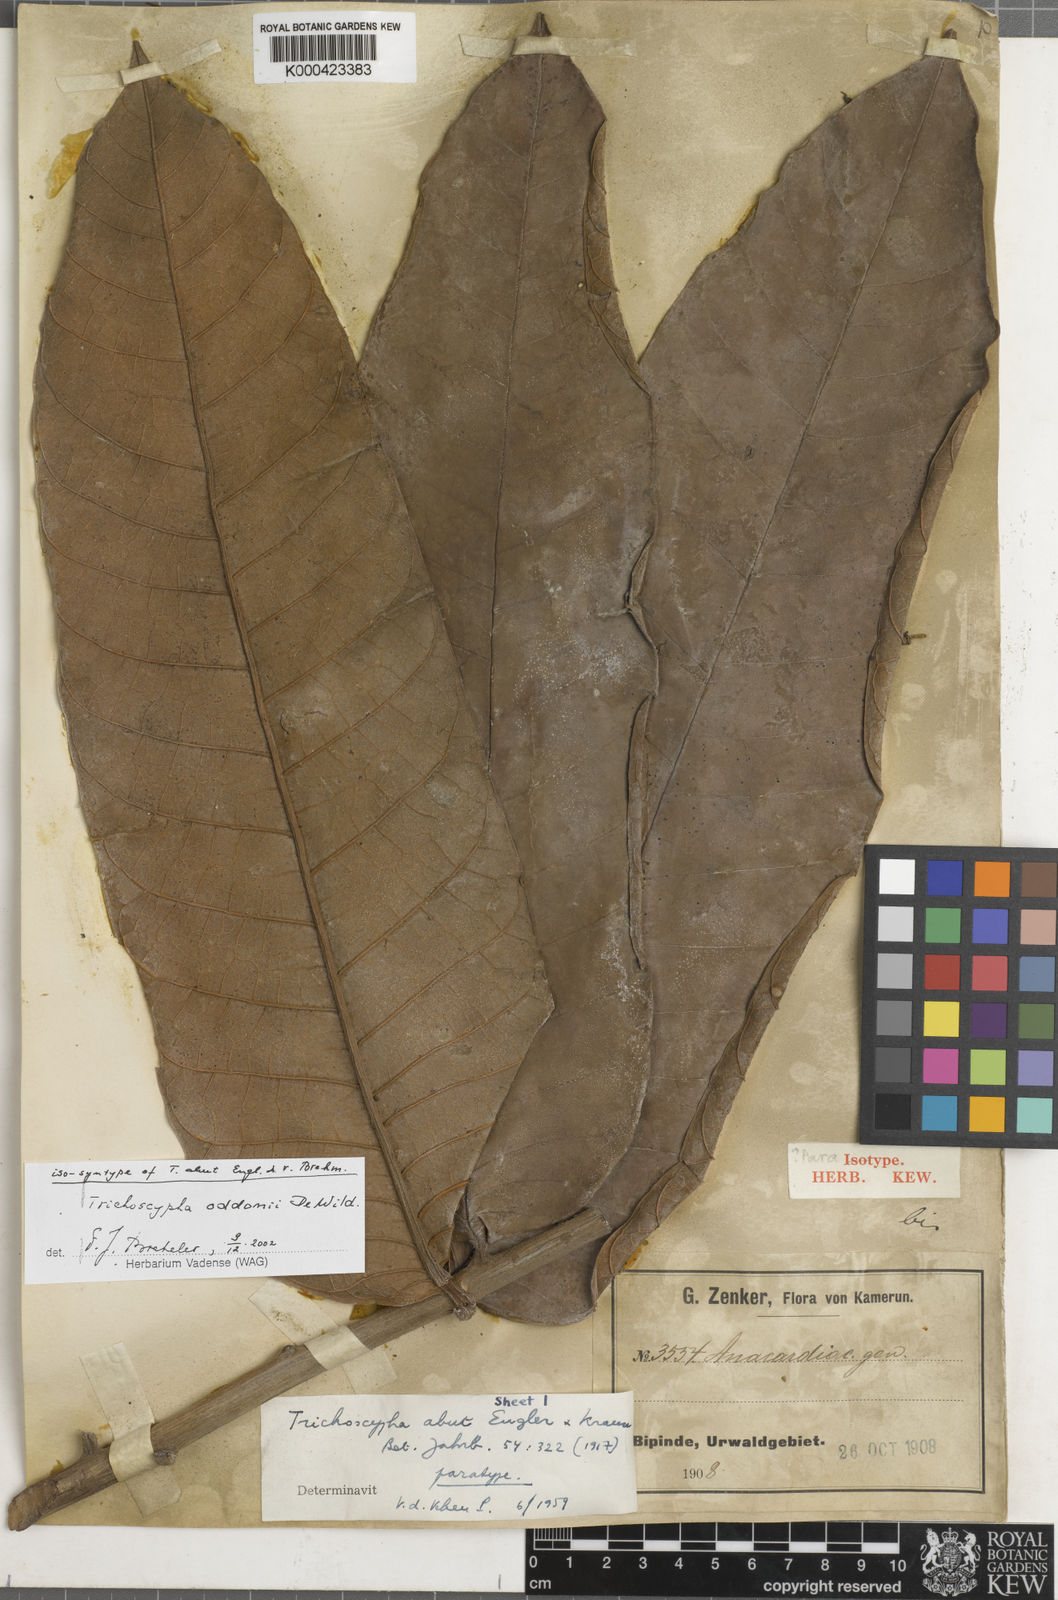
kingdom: Plantae
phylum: Tracheophyta
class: Magnoliopsida
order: Sapindales
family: Anacardiaceae
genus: Trichoscypha
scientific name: Trichoscypha oddonii
